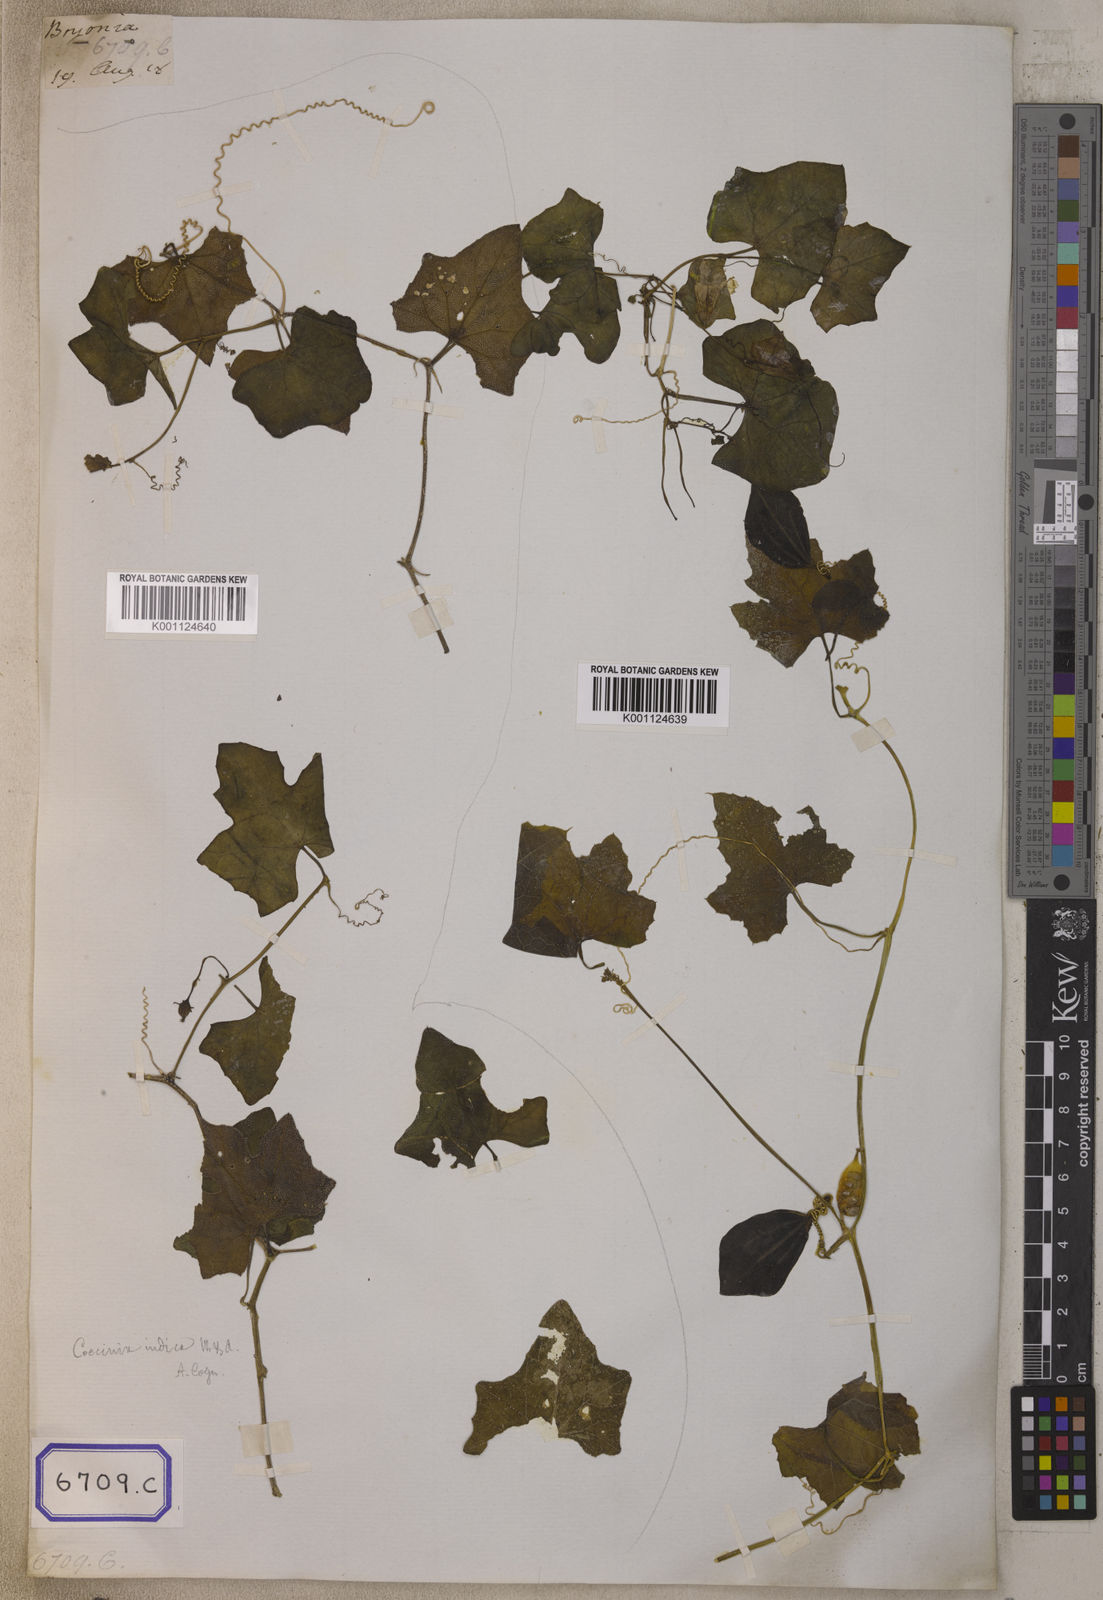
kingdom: Plantae
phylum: Tracheophyta
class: Magnoliopsida
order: Cucurbitales
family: Cucurbitaceae
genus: Corallocarpus
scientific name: Corallocarpus epigaeus
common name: Indian bryonia
